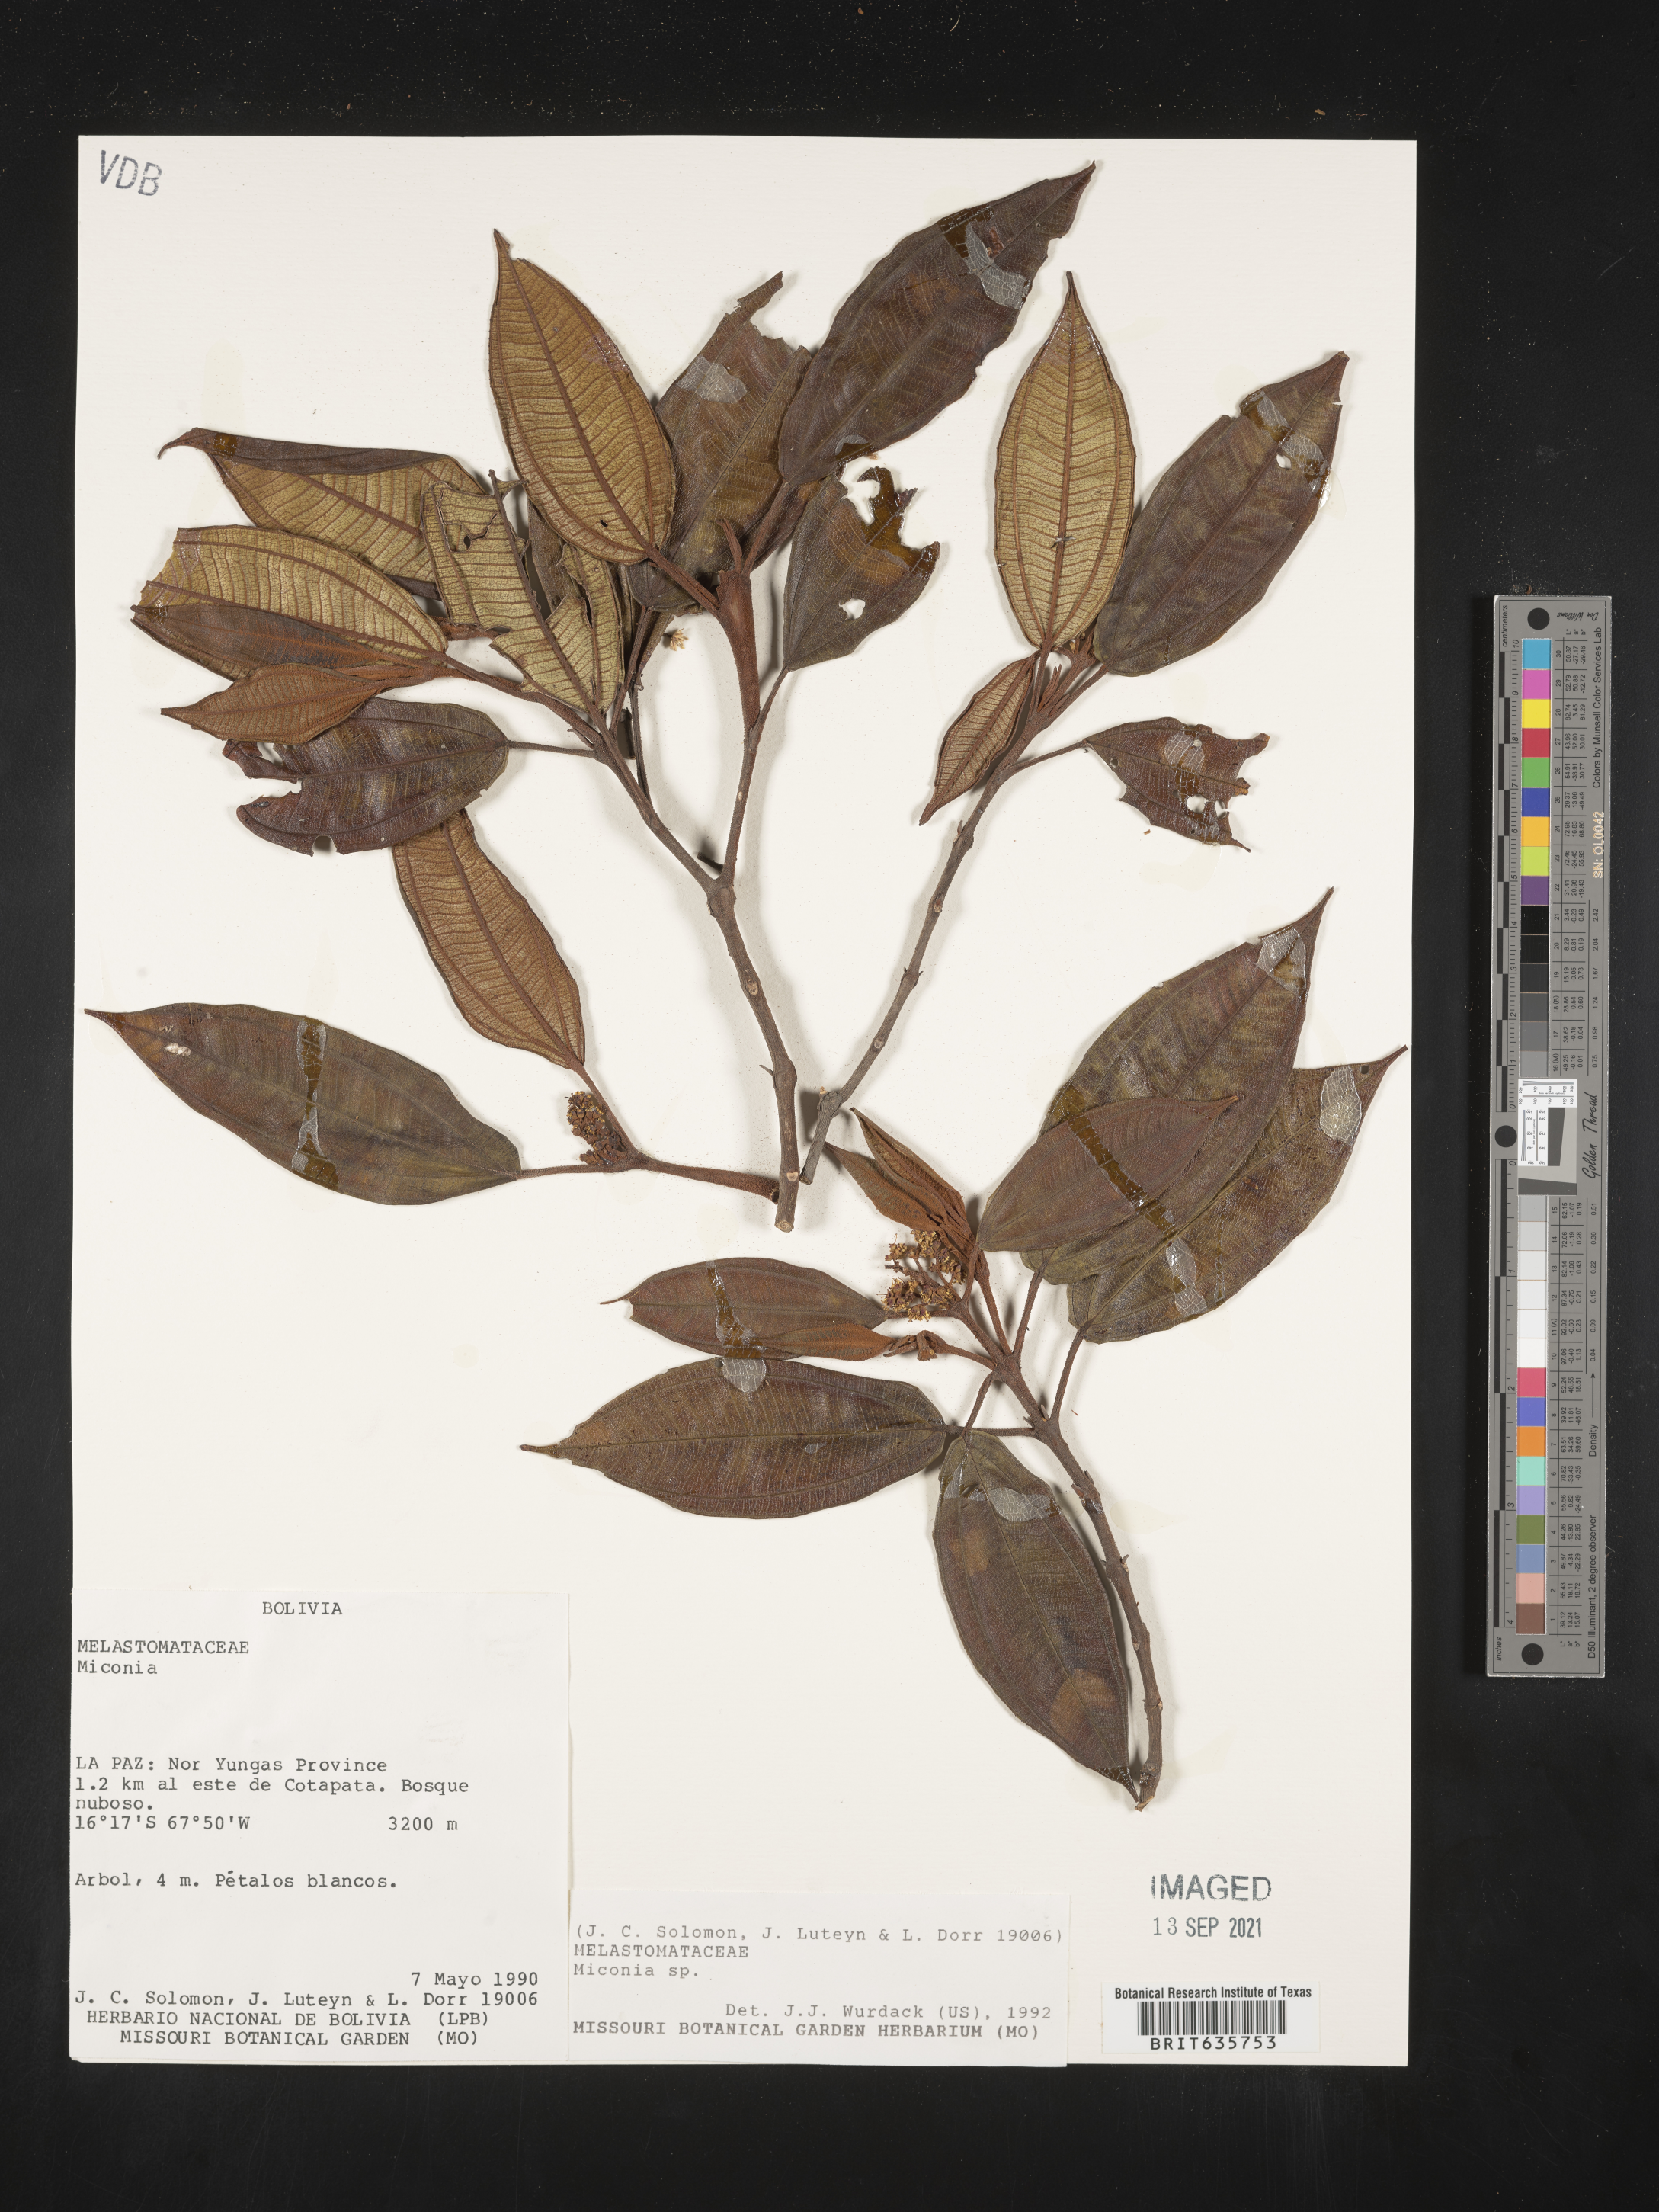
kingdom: Plantae
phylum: Tracheophyta
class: Magnoliopsida
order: Myrtales
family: Melastomataceae
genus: Miconia
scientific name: Miconia
